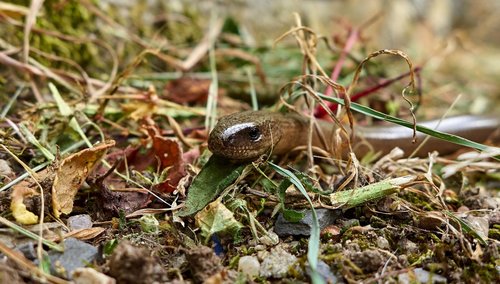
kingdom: Animalia
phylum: Chordata
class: Squamata
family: Anguidae
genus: Anguis
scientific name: Anguis fragilis
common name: Slow worm
